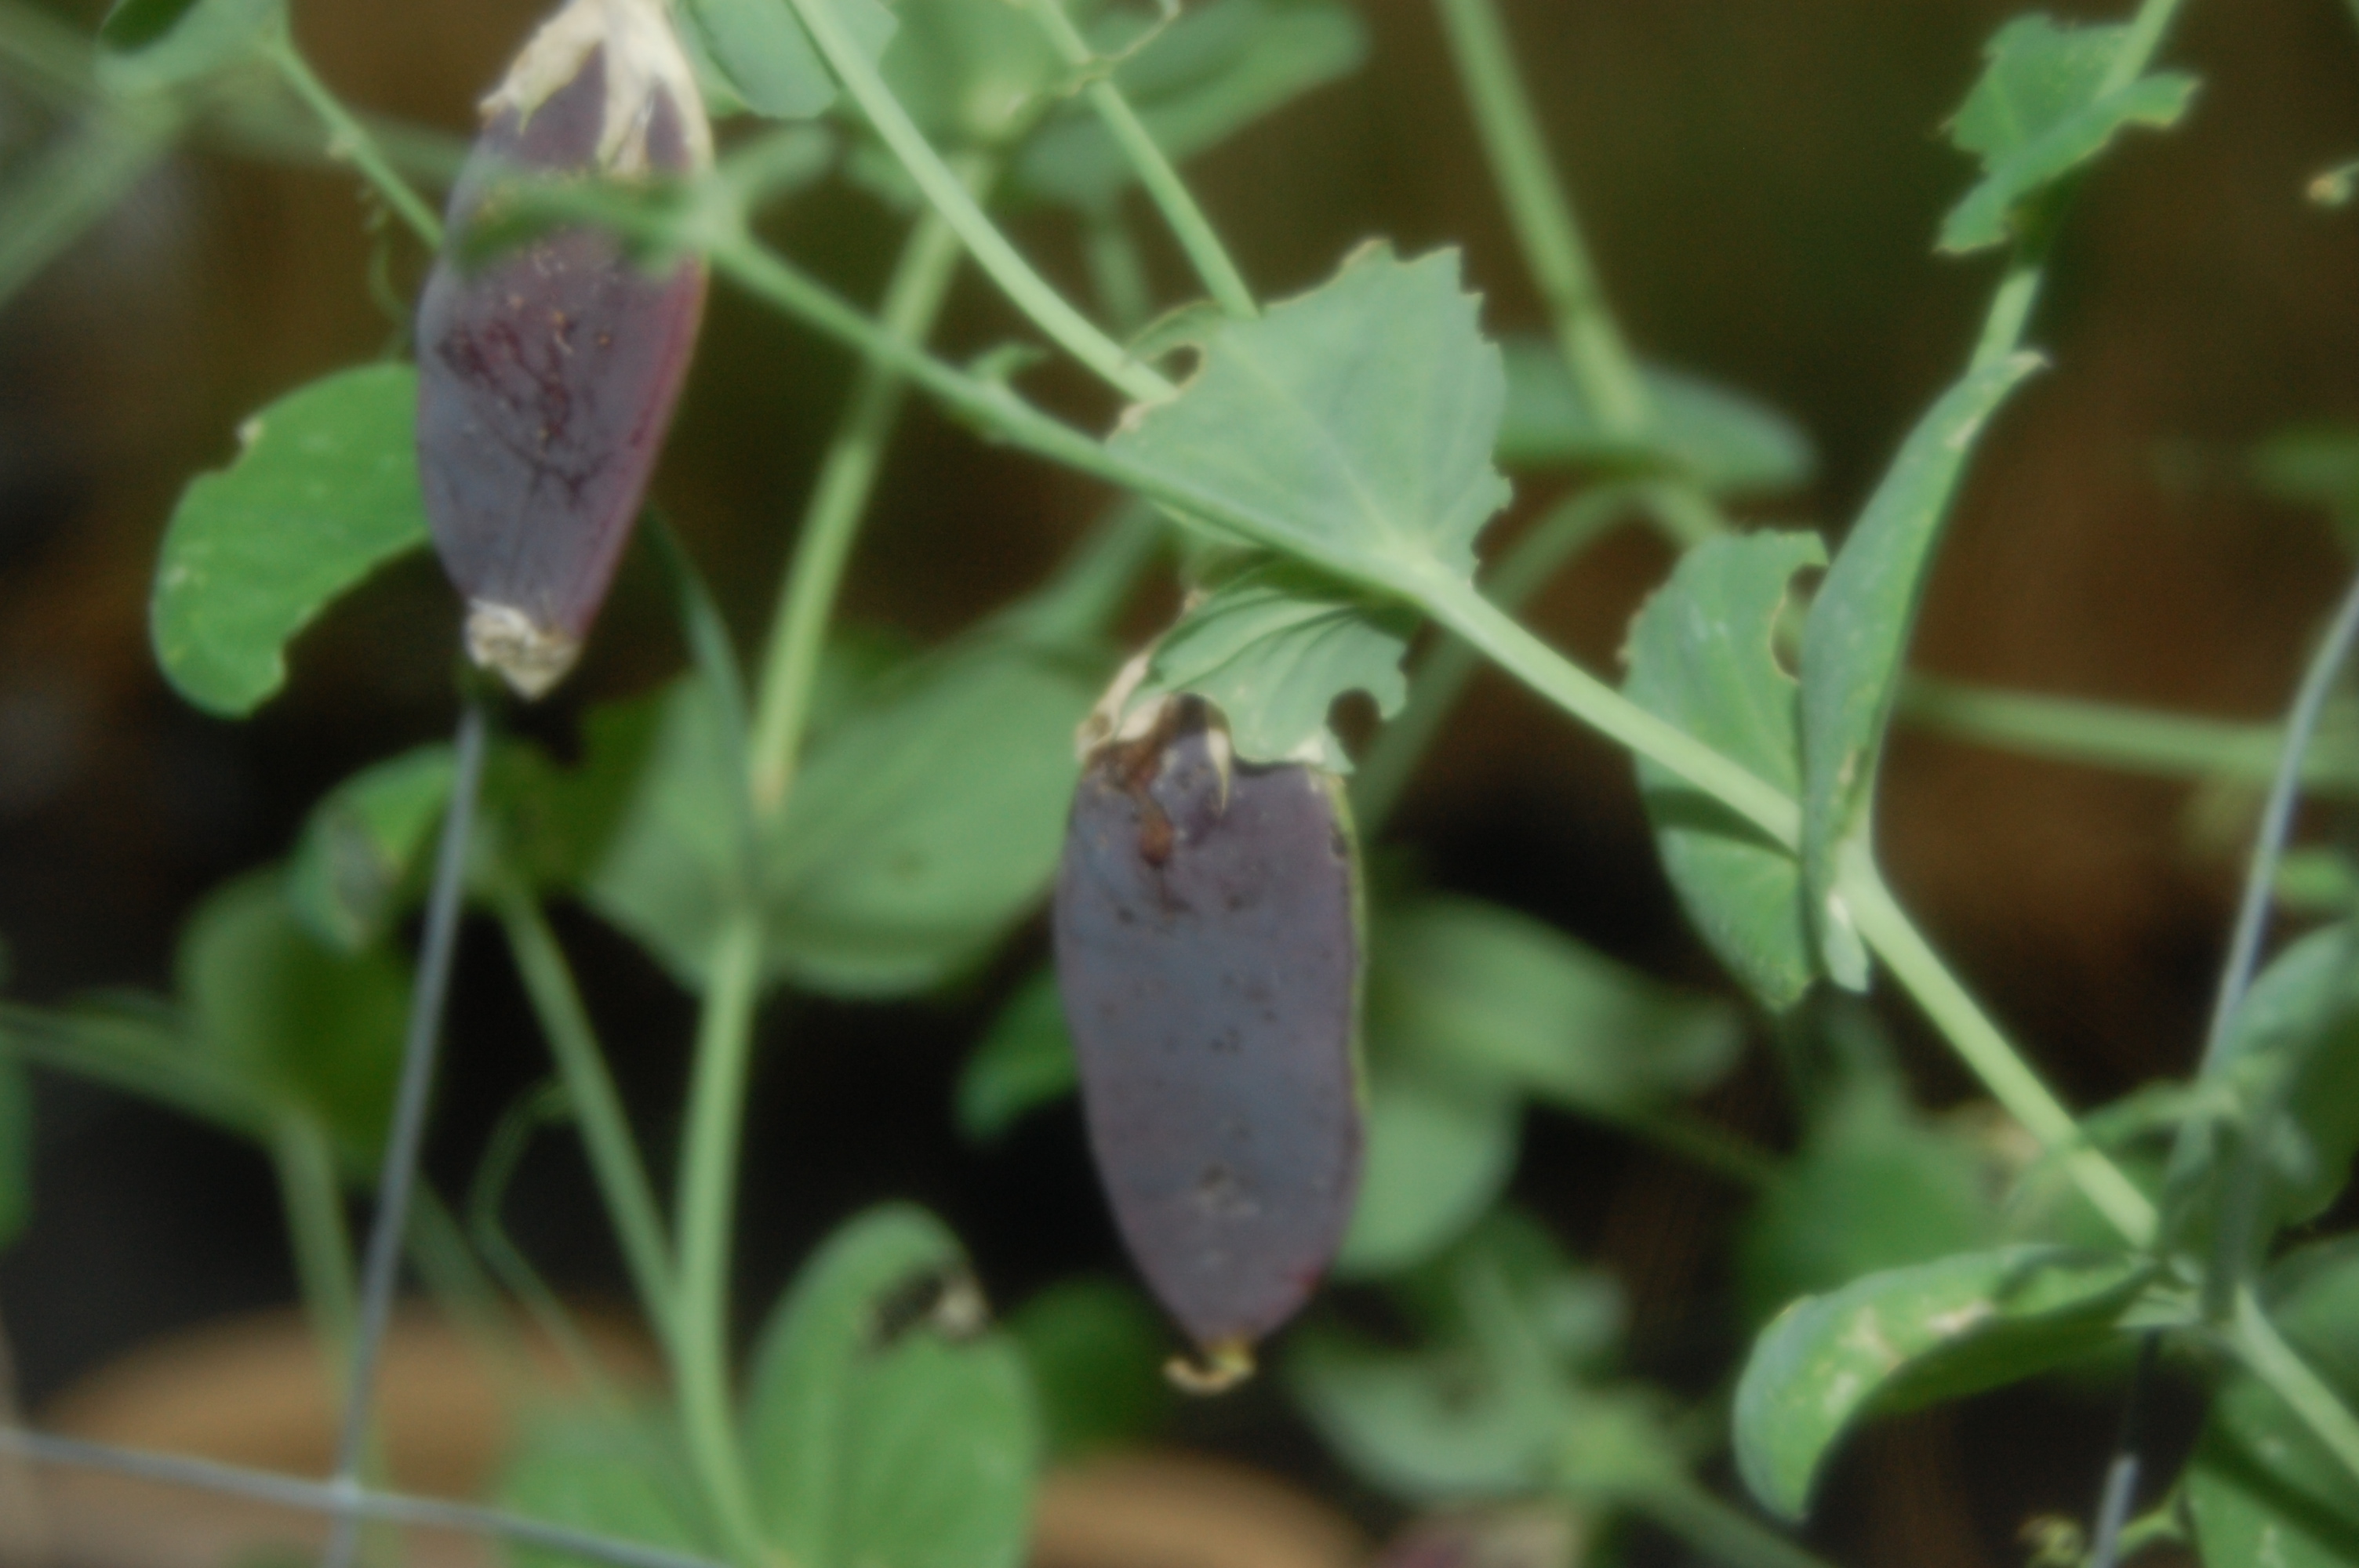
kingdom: Plantae
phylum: Tracheophyta
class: Magnoliopsida
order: Fabales
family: Fabaceae
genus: Lathyrus
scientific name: Lathyrus oleraceus
